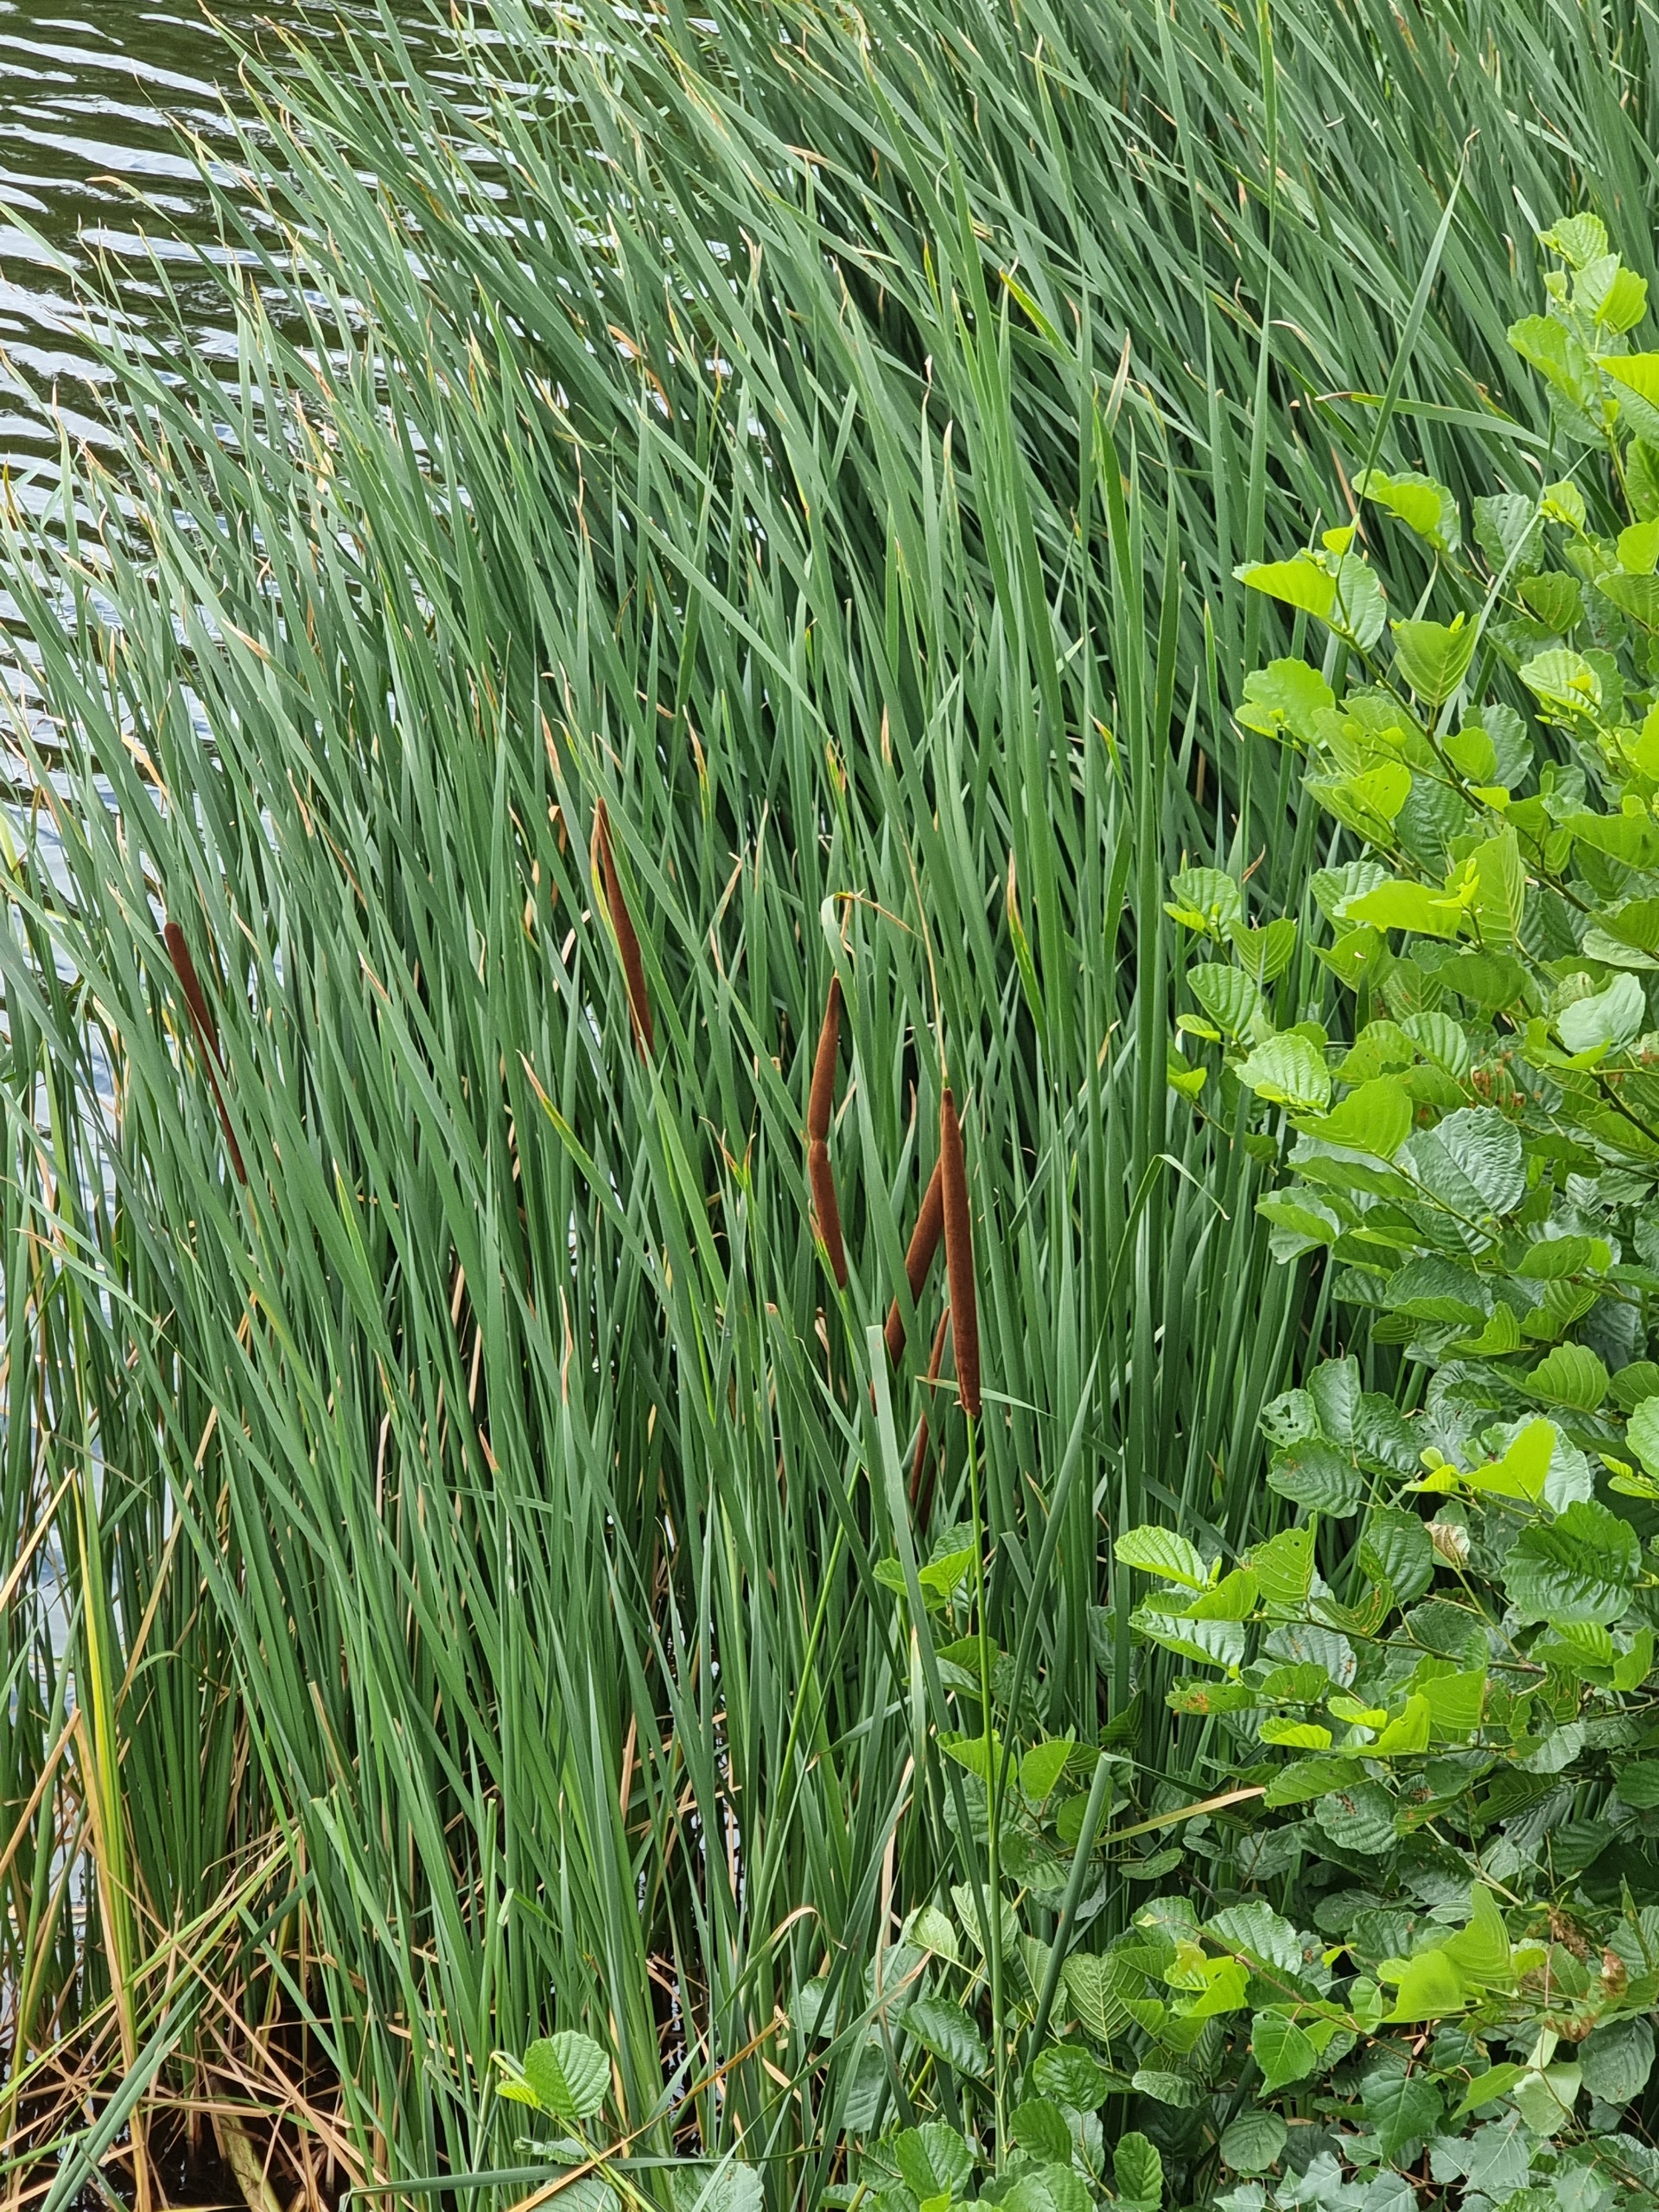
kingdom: Plantae
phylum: Tracheophyta
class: Liliopsida
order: Poales
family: Typhaceae
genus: Typha
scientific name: Typha
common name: Smalbladet dunhammer × bredbladet dunhammer
